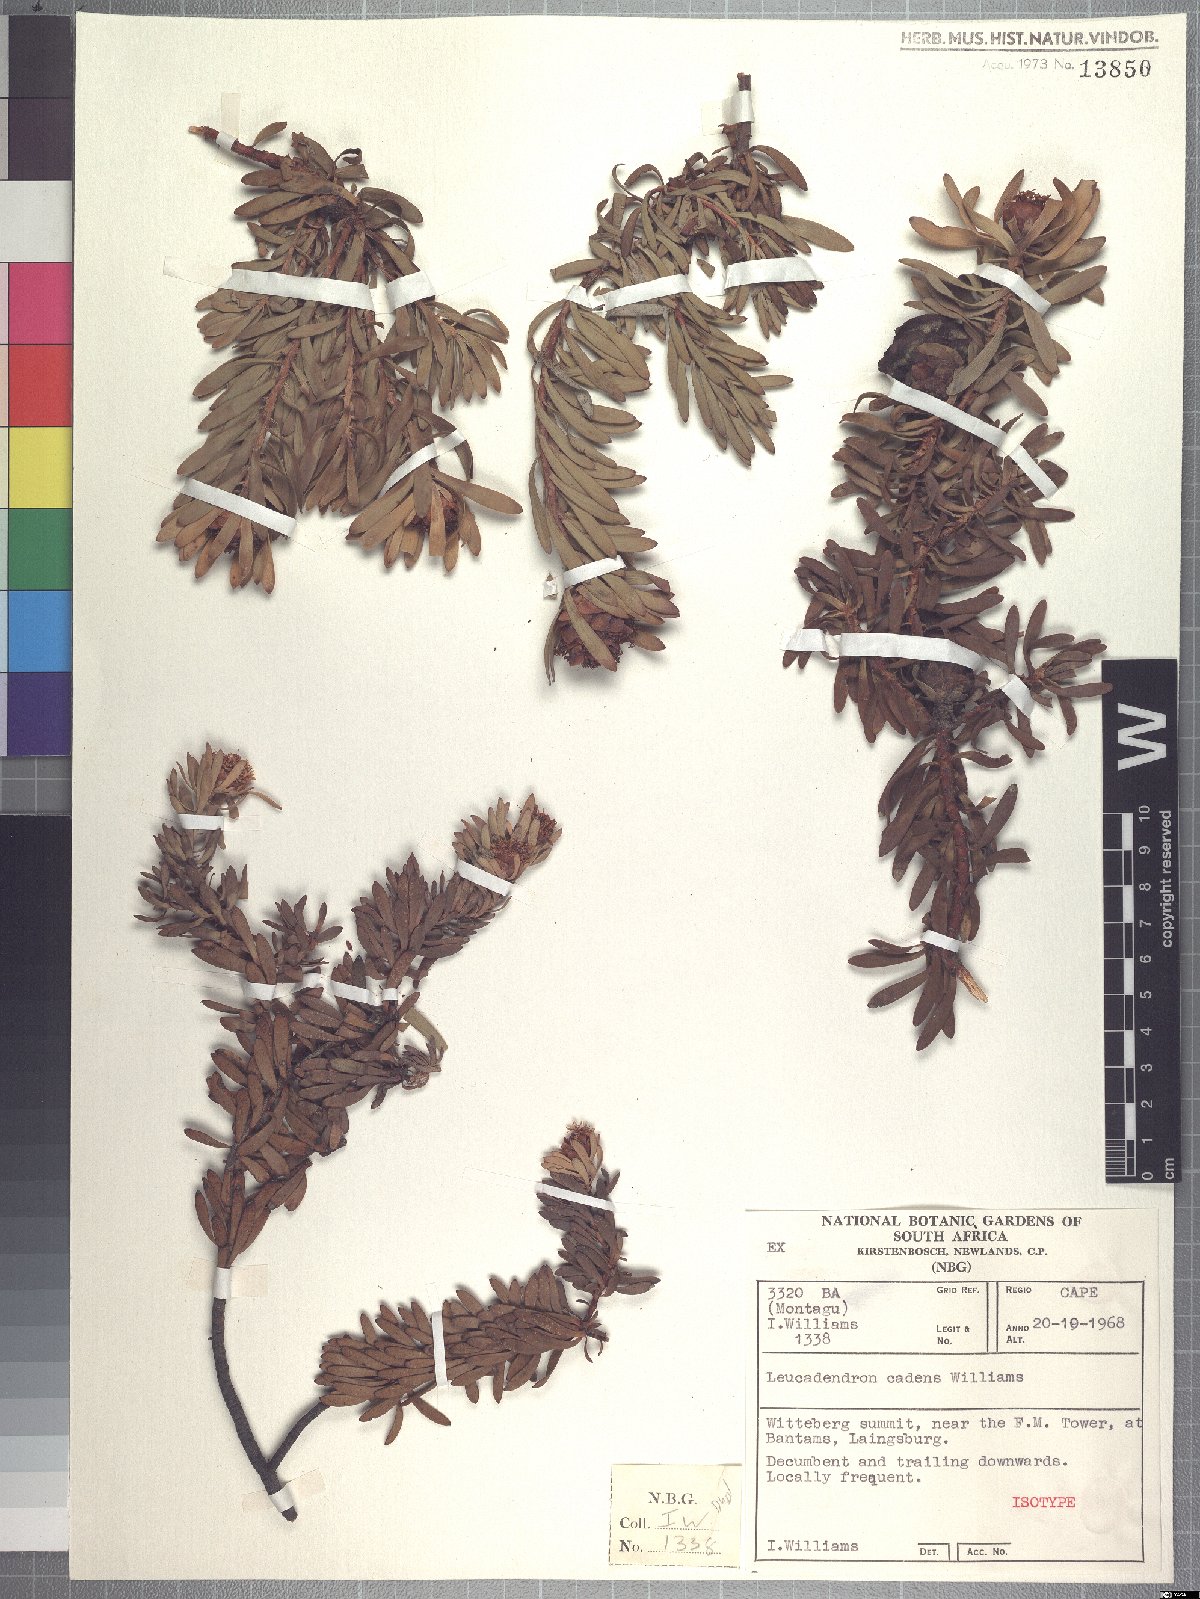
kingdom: Plantae
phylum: Tracheophyta
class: Magnoliopsida
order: Proteales
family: Proteaceae
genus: Leucadendron
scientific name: Leucadendron cadens
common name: Witteberg sunbush
